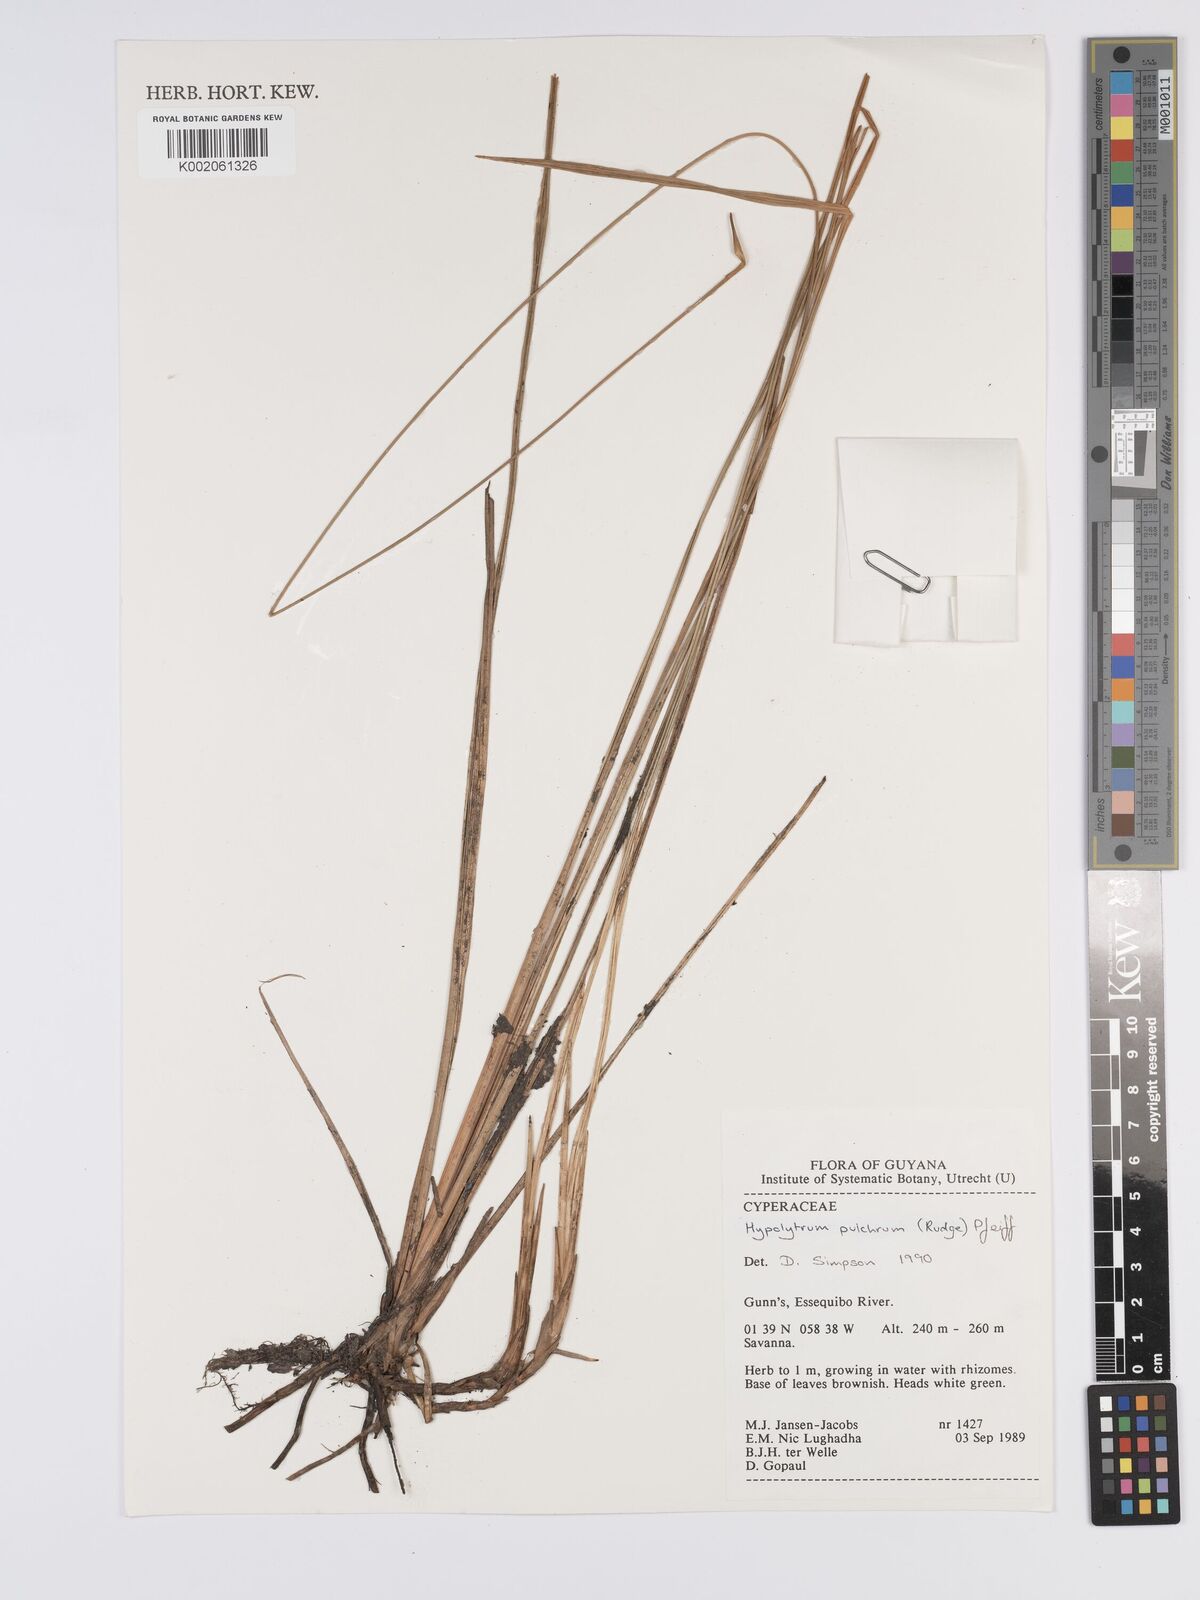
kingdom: Plantae
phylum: Tracheophyta
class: Liliopsida
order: Poales
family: Cyperaceae
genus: Hypolytrum
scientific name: Hypolytrum pulchrum
